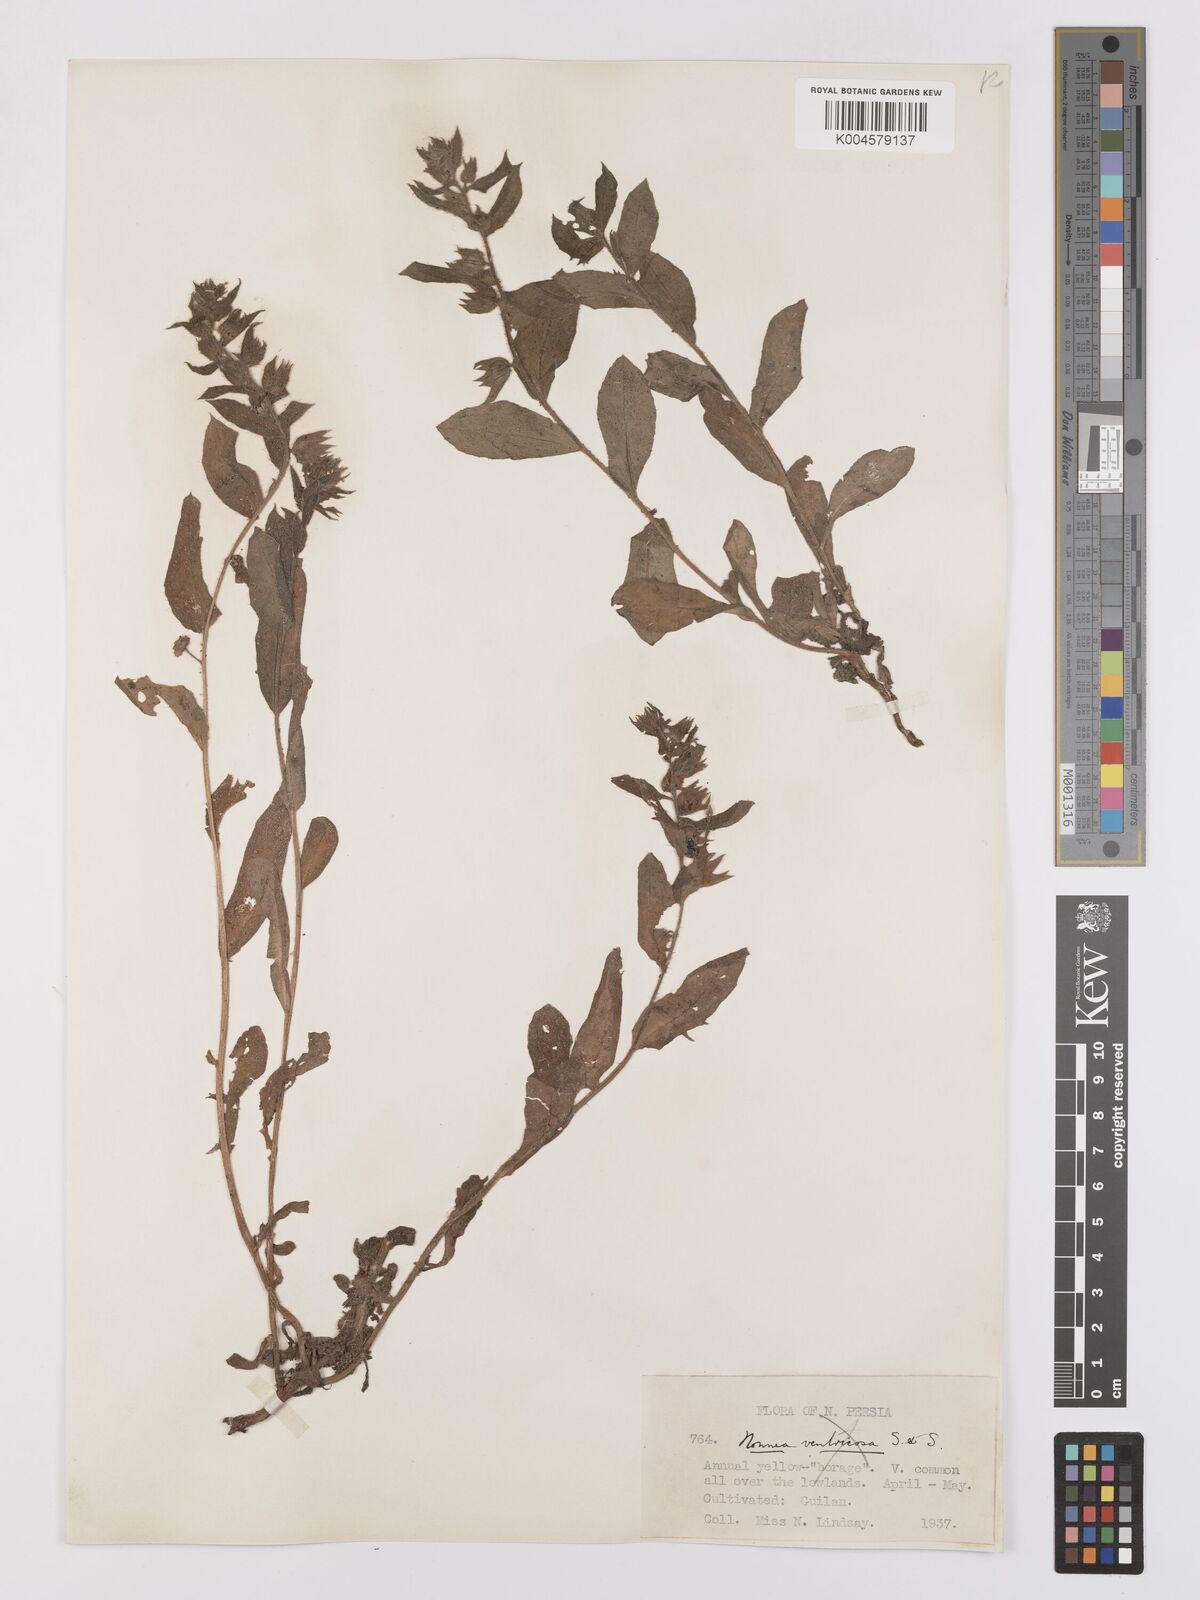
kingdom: Plantae
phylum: Tracheophyta
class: Magnoliopsida
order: Boraginales
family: Boraginaceae
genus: Nonea
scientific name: Nonea
